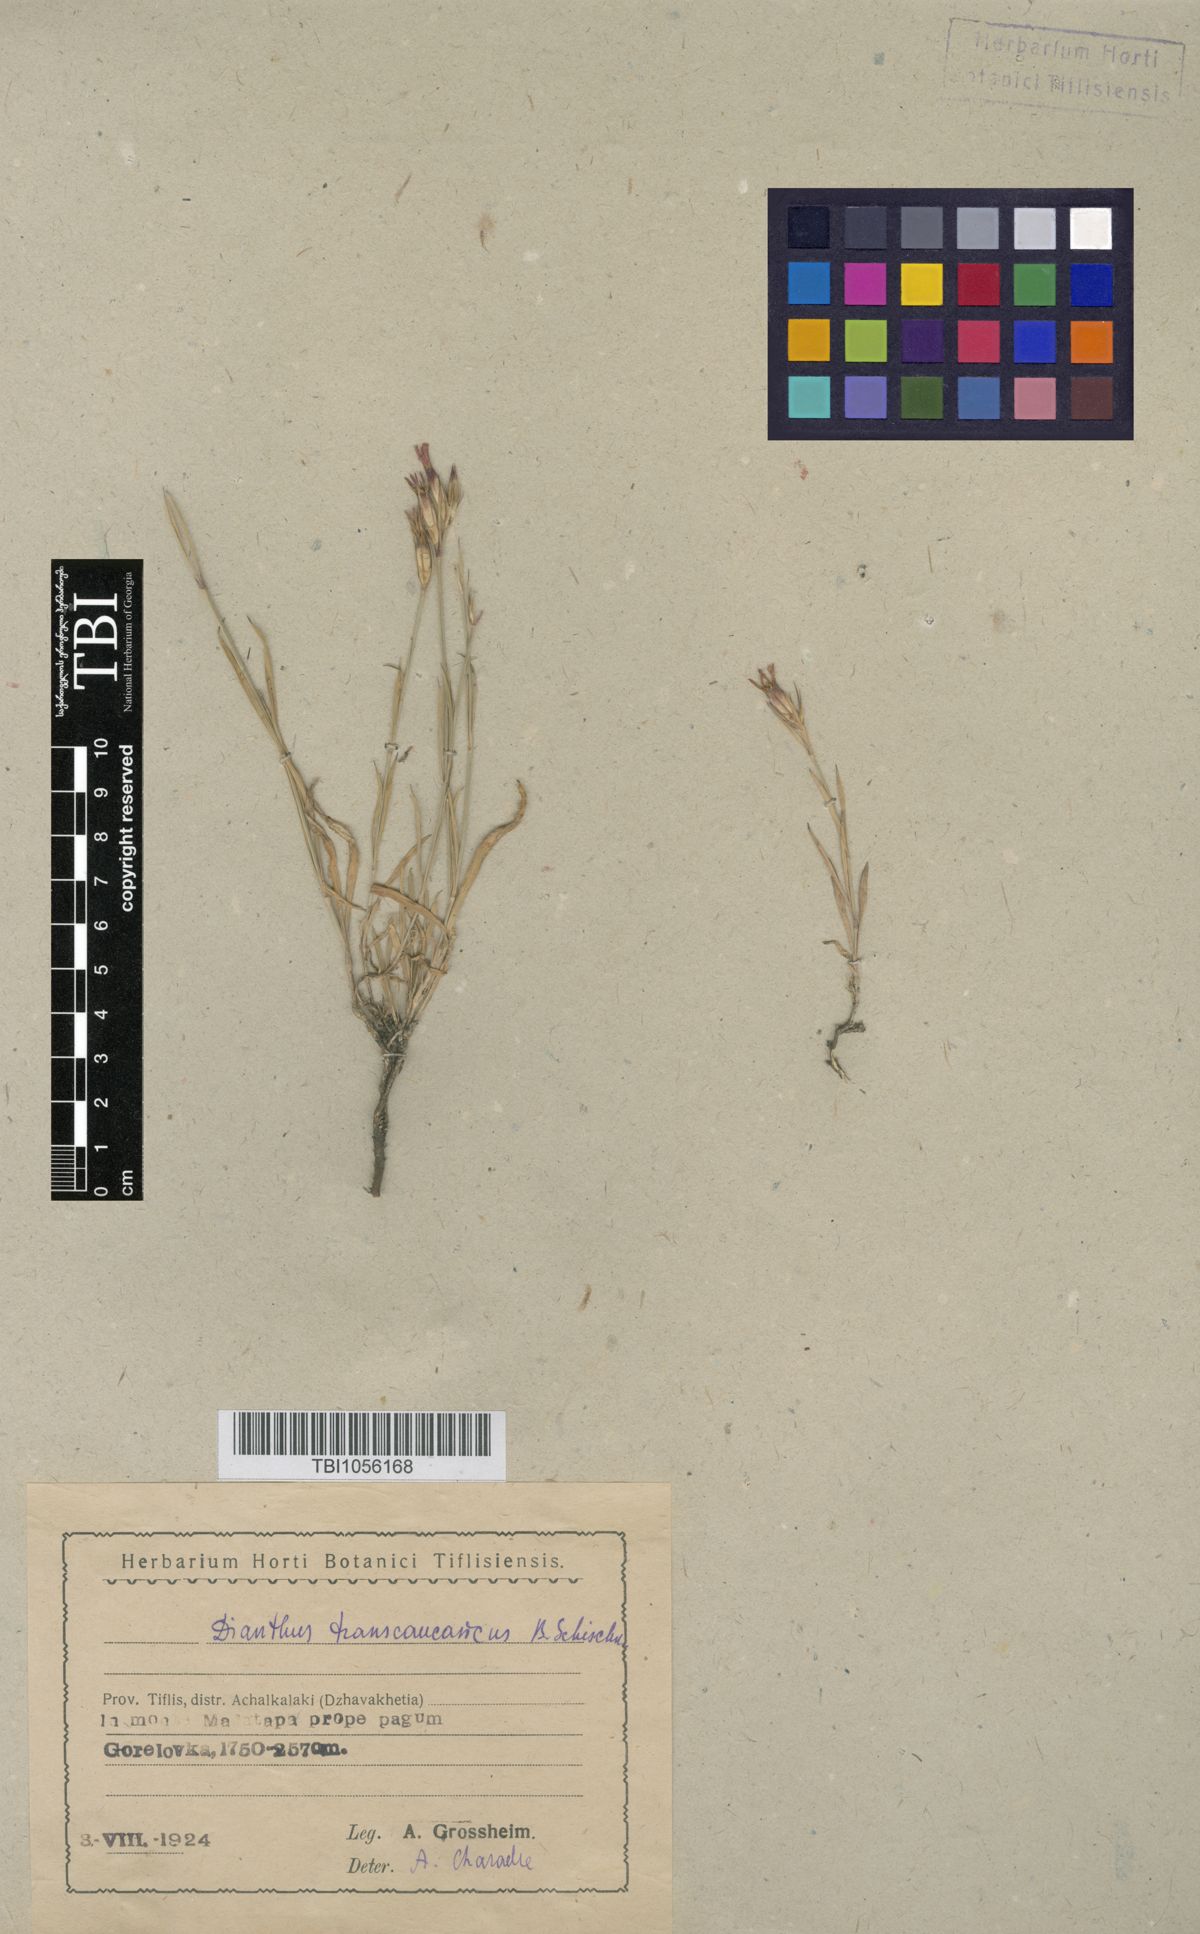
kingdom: Plantae
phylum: Tracheophyta
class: Magnoliopsida
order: Caryophyllales
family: Caryophyllaceae
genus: Dianthus
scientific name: Dianthus masmenaeus
